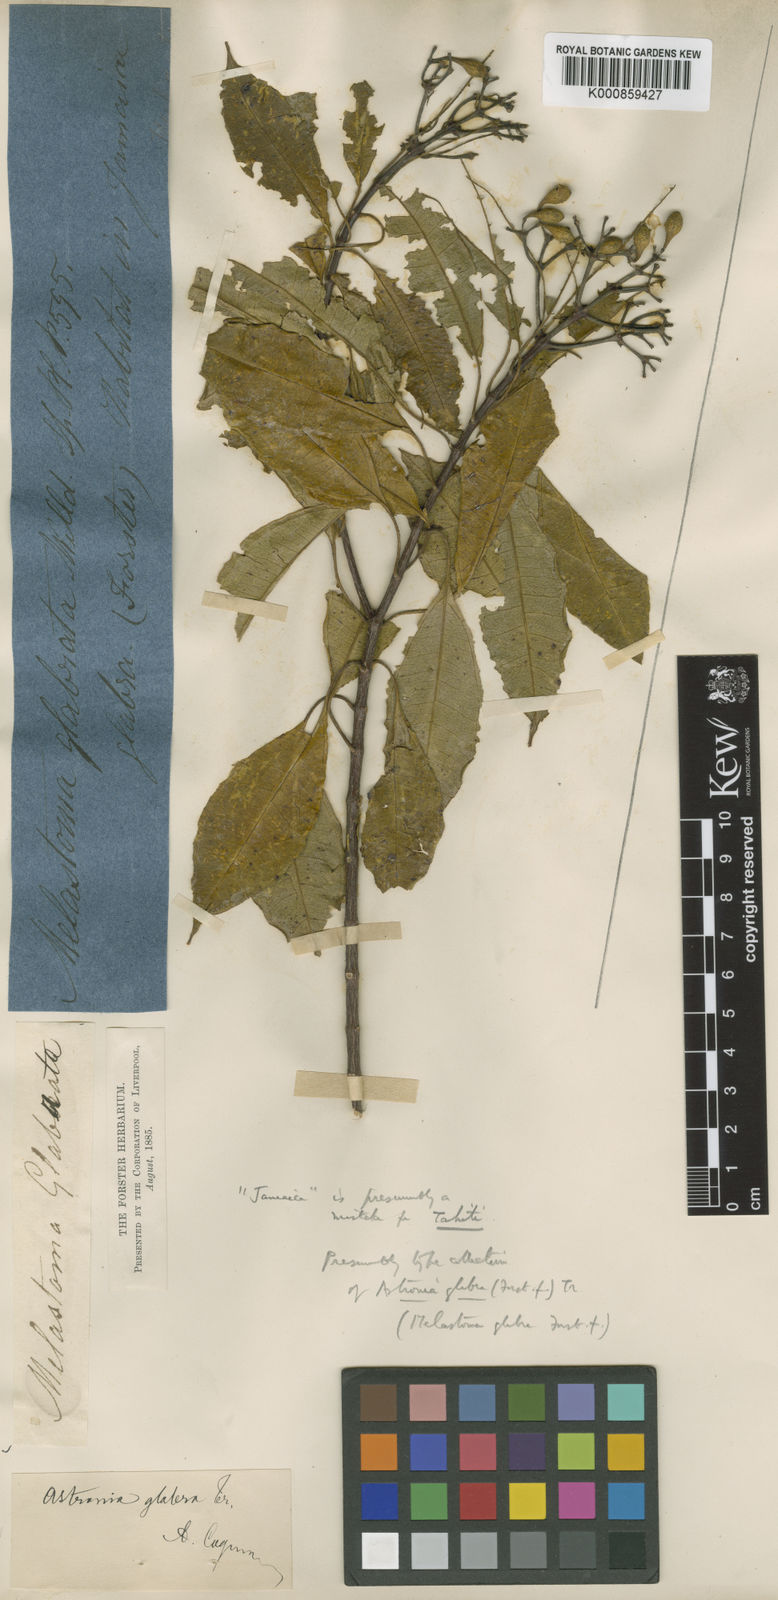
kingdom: Plantae
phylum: Tracheophyta
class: Magnoliopsida
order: Myrtales
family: Melastomataceae
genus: Astronidium
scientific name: Astronidium glabrum
